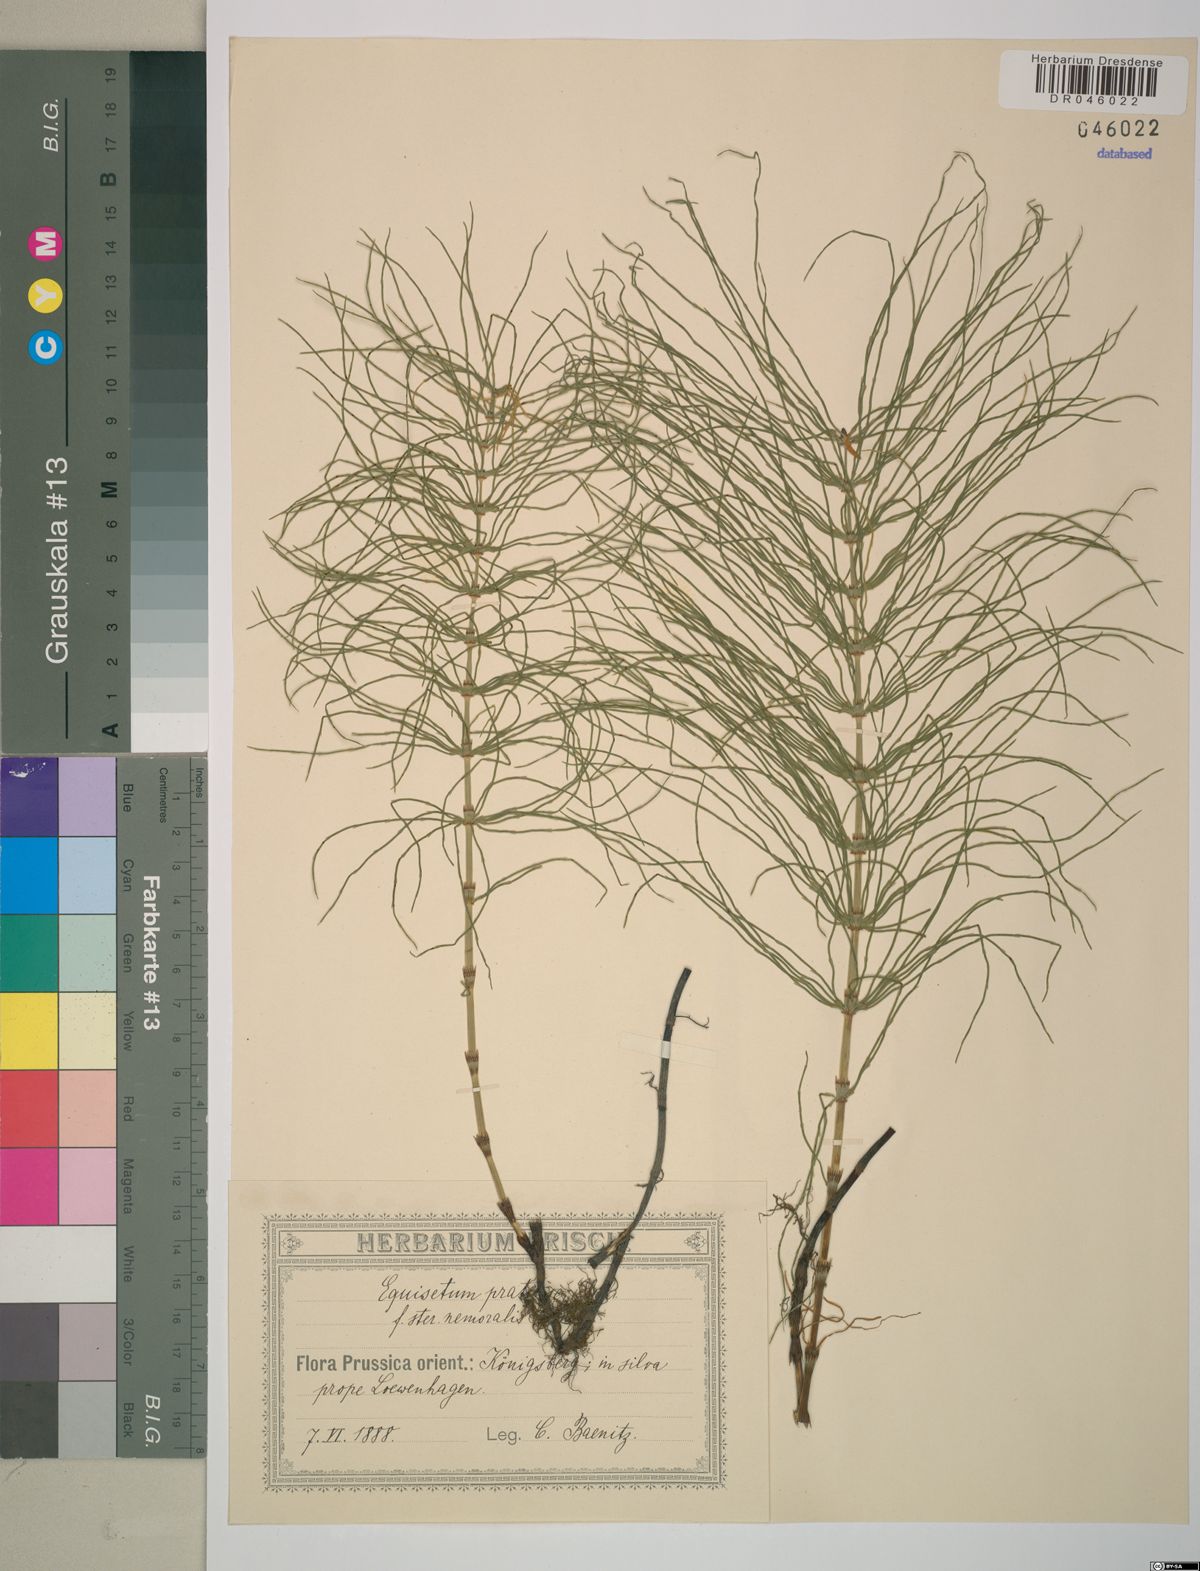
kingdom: Plantae
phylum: Tracheophyta
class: Polypodiopsida
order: Equisetales
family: Equisetaceae
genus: Equisetum
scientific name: Equisetum pratense
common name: Meadow horsetail
